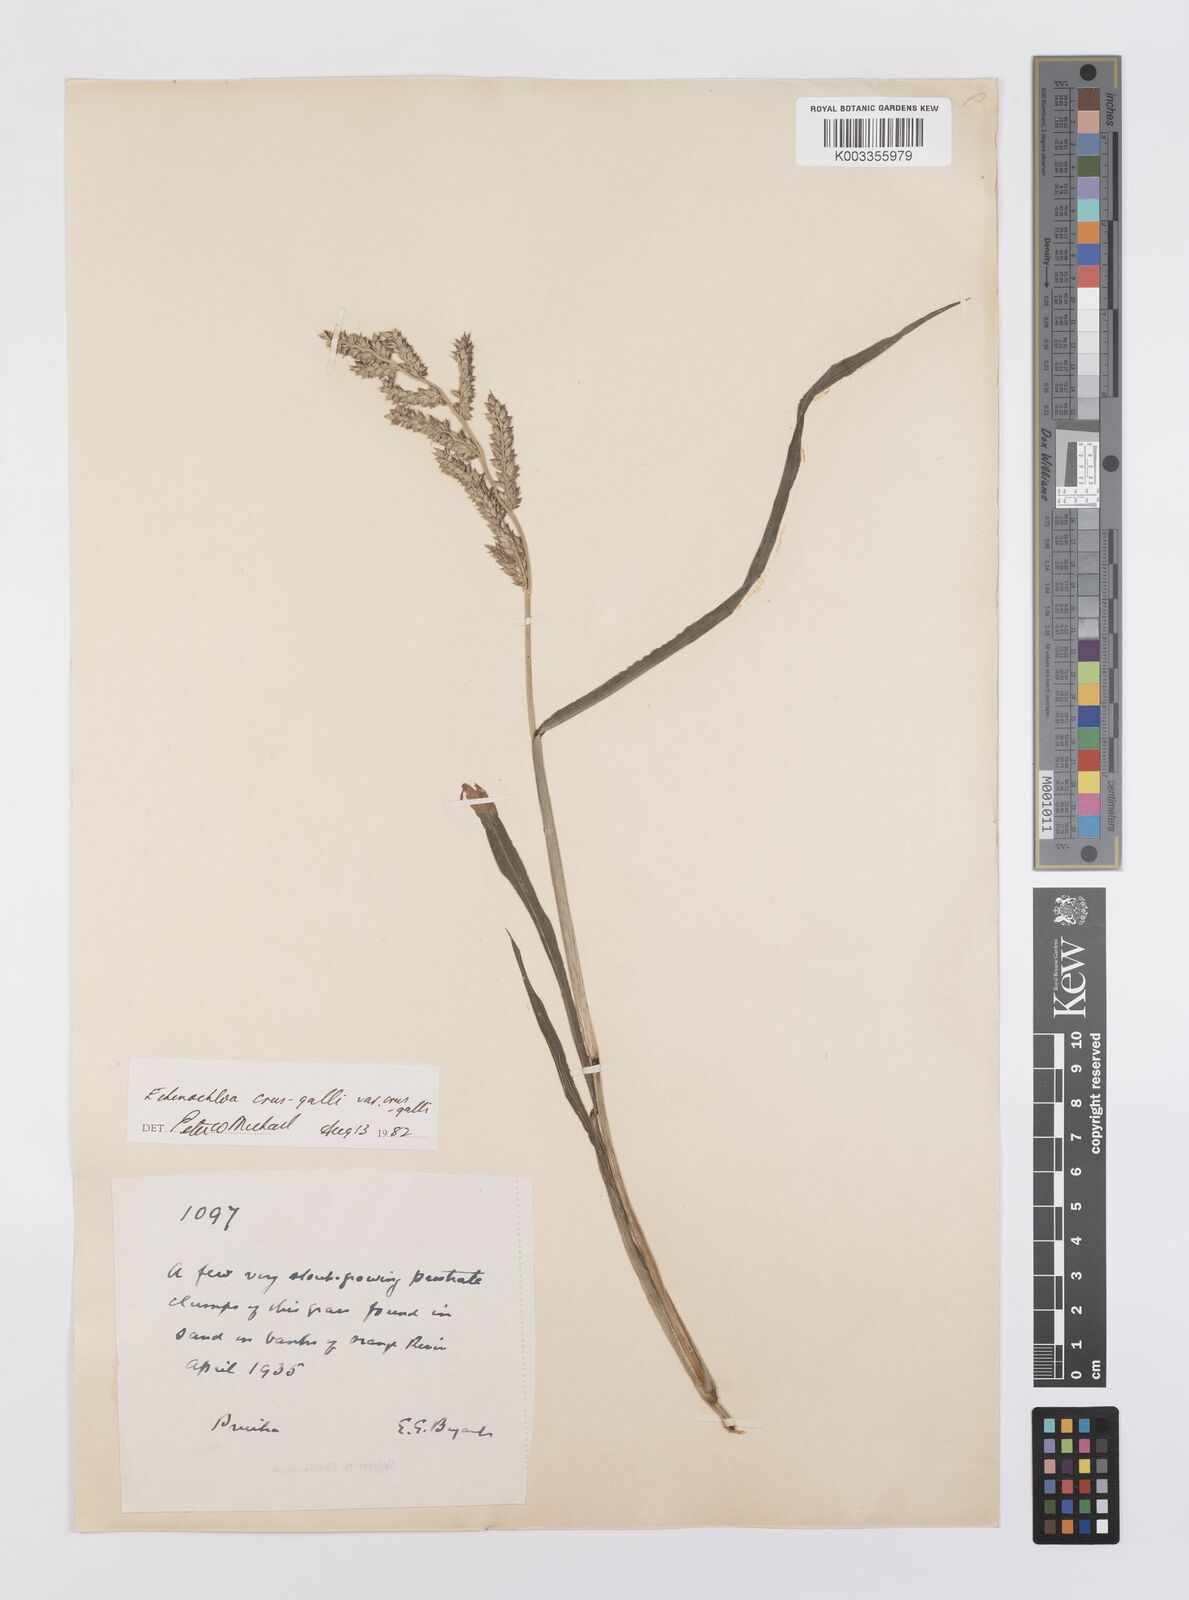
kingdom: Plantae
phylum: Tracheophyta
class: Liliopsida
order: Poales
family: Poaceae
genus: Echinochloa
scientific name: Echinochloa crus-galli
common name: Cockspur
